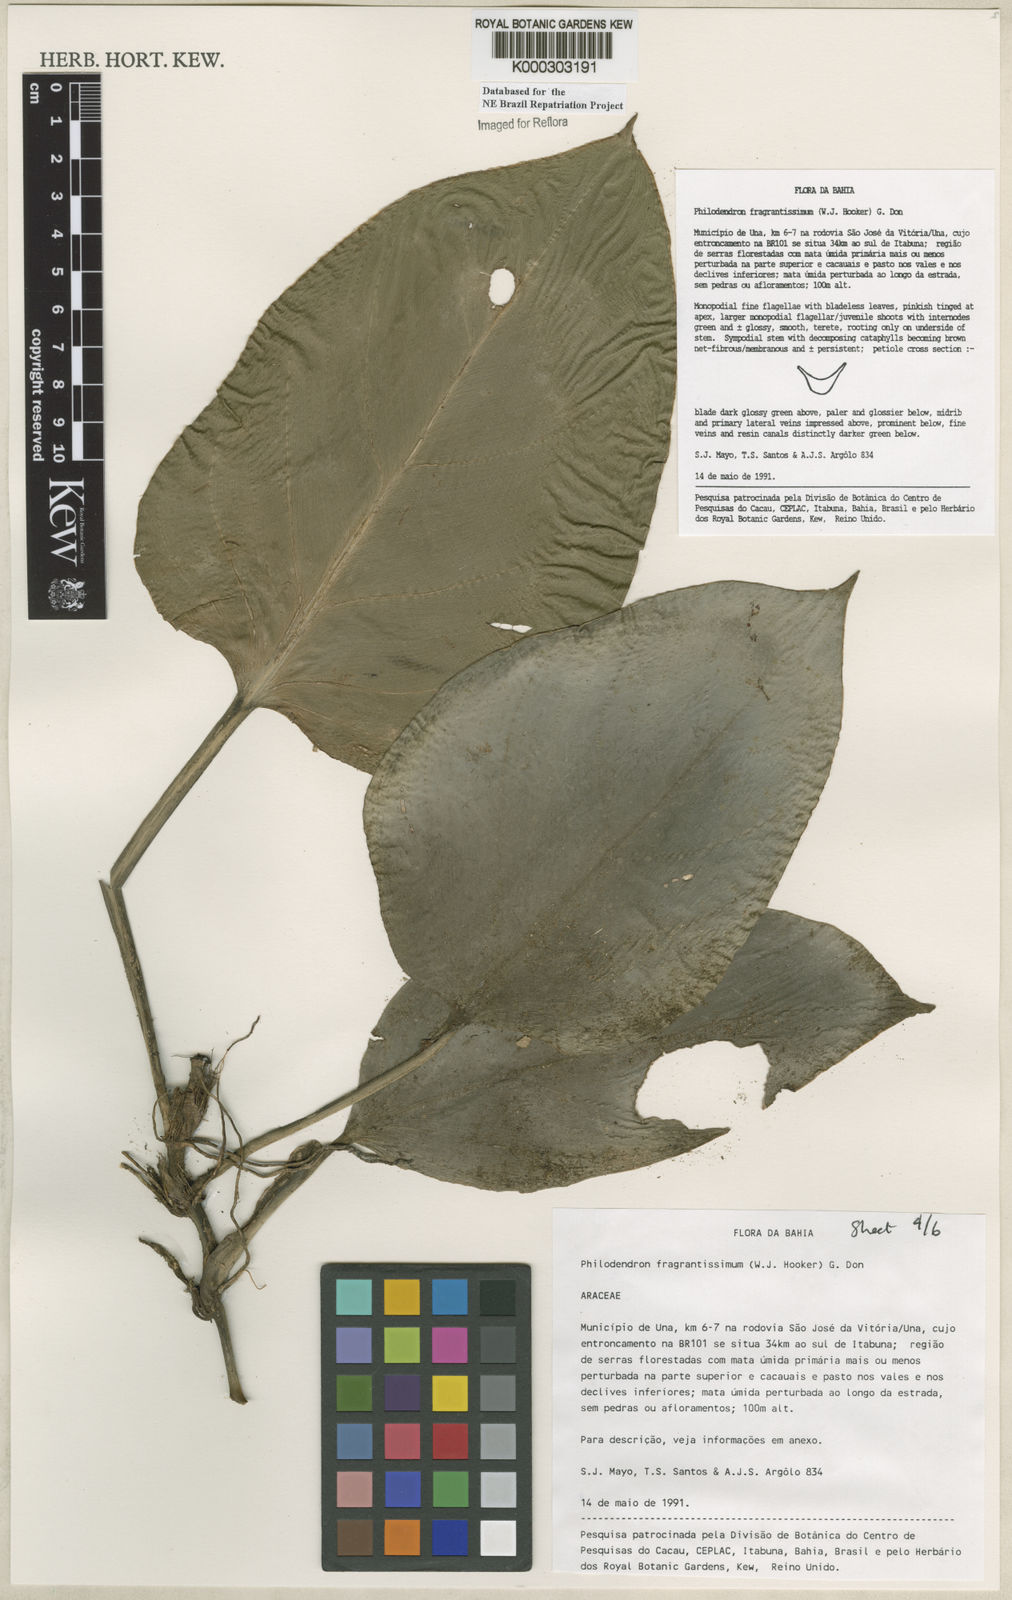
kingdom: Plantae
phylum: Tracheophyta
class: Liliopsida
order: Alismatales
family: Araceae
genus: Philodendron
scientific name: Philodendron fragrantissimum
